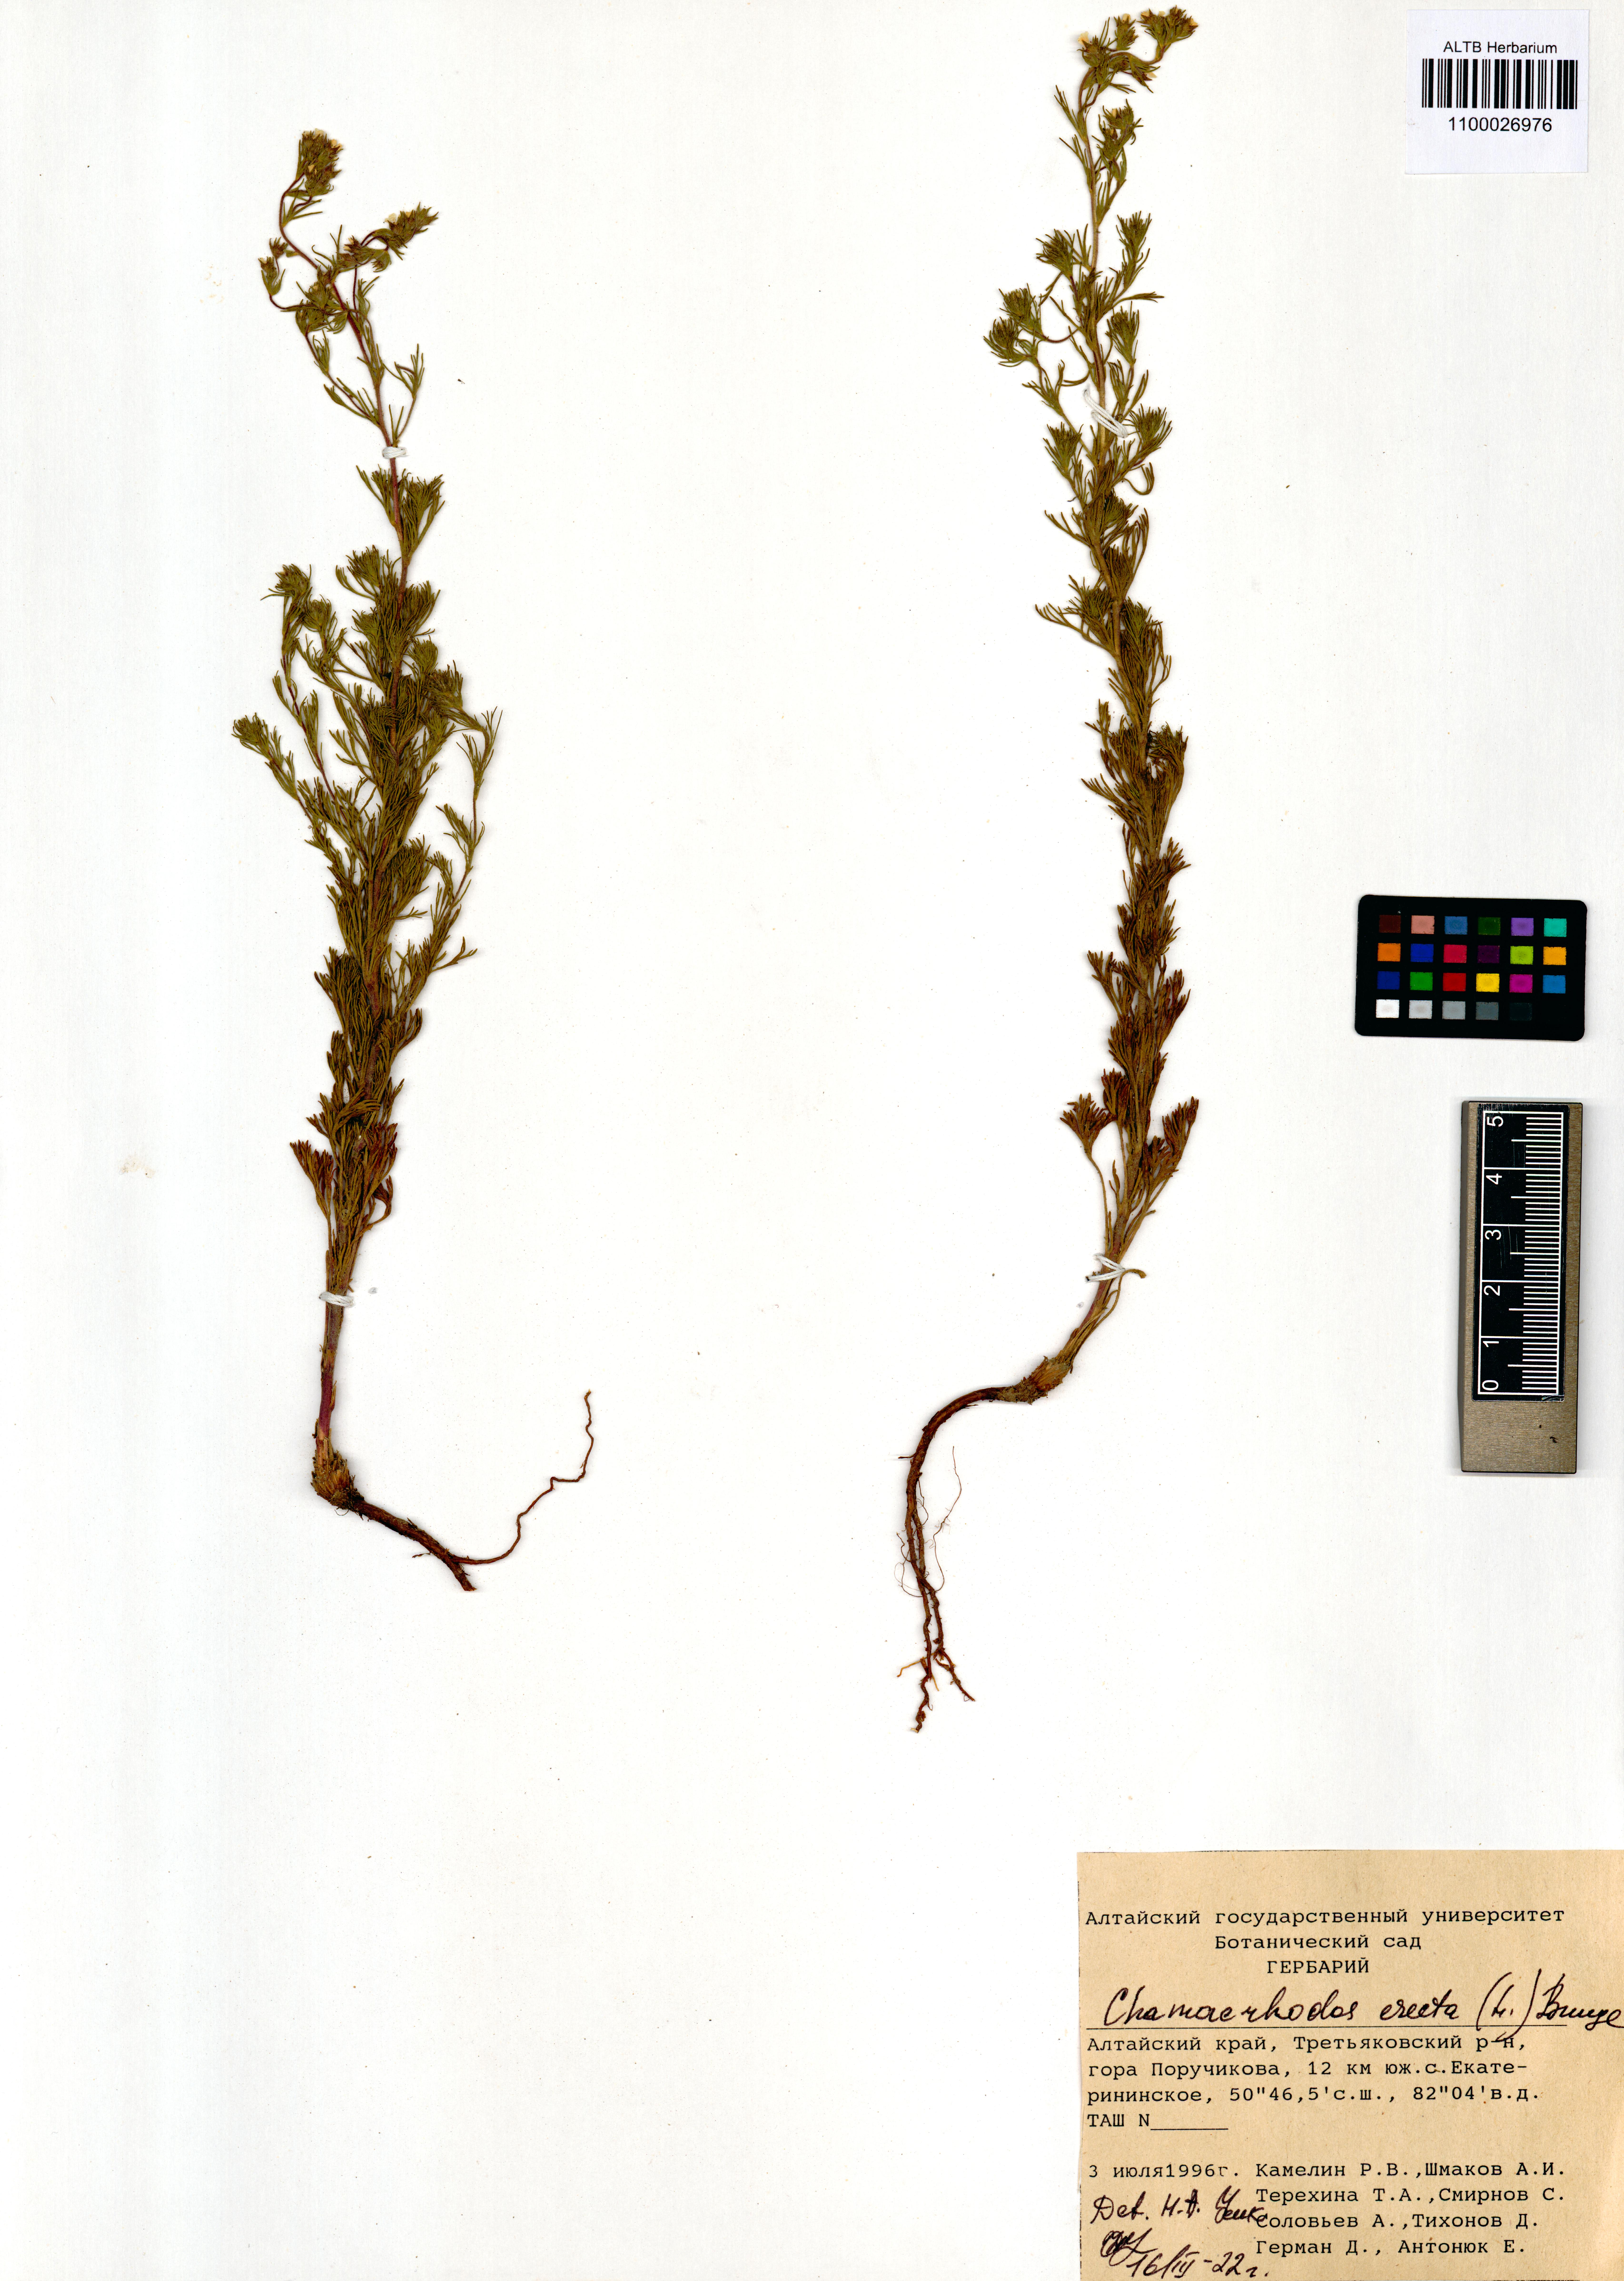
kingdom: Plantae
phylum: Tracheophyta
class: Magnoliopsida
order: Rosales
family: Rosaceae
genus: Chamaerhodos
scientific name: Chamaerhodos erecta
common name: American chamaerhodos
